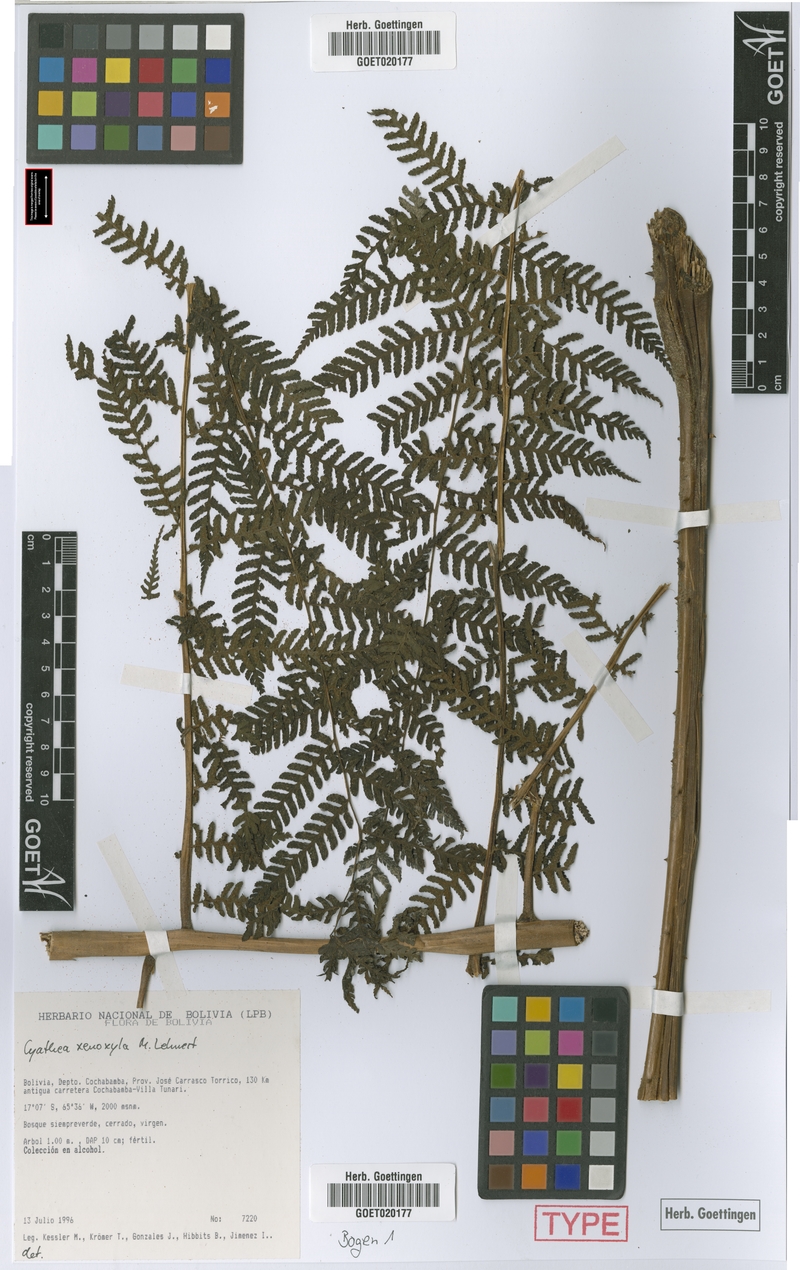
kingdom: Plantae
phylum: Tracheophyta
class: Polypodiopsida
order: Cyatheales
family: Cyatheaceae
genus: Cyathea
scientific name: Cyathea planadae
